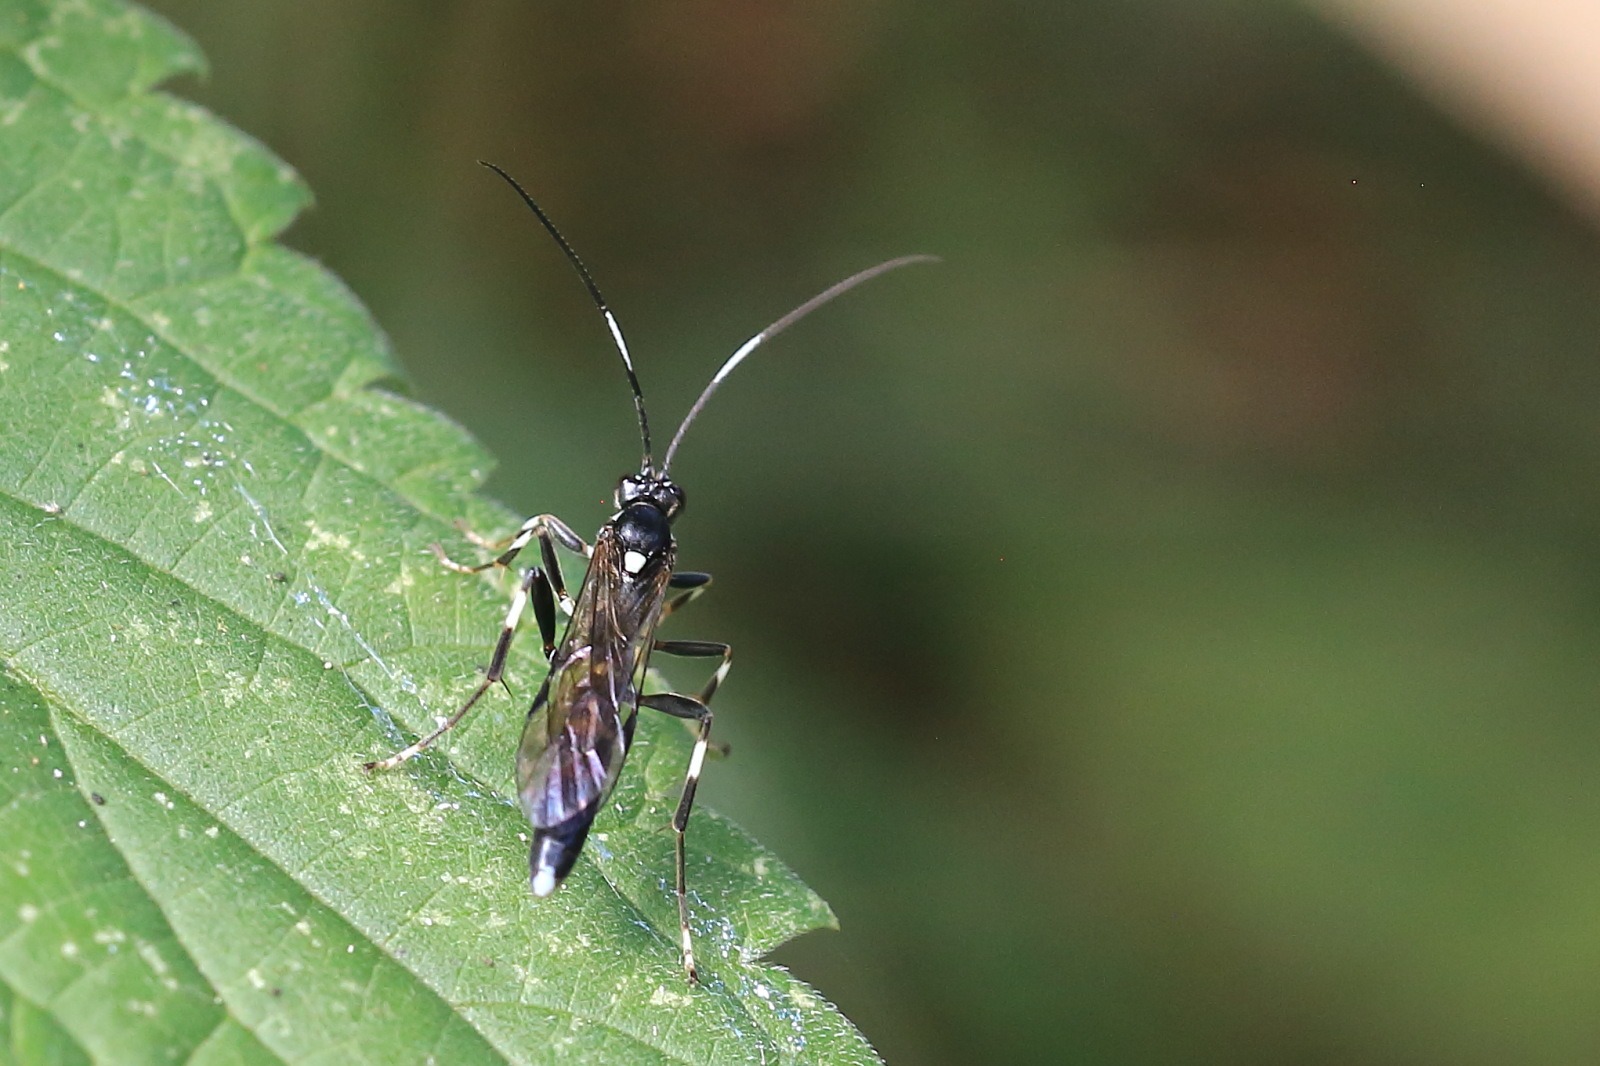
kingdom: Animalia
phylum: Arthropoda
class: Insecta
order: Hymenoptera
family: Ichneumonidae
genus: Achaius
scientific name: Achaius oratorius
